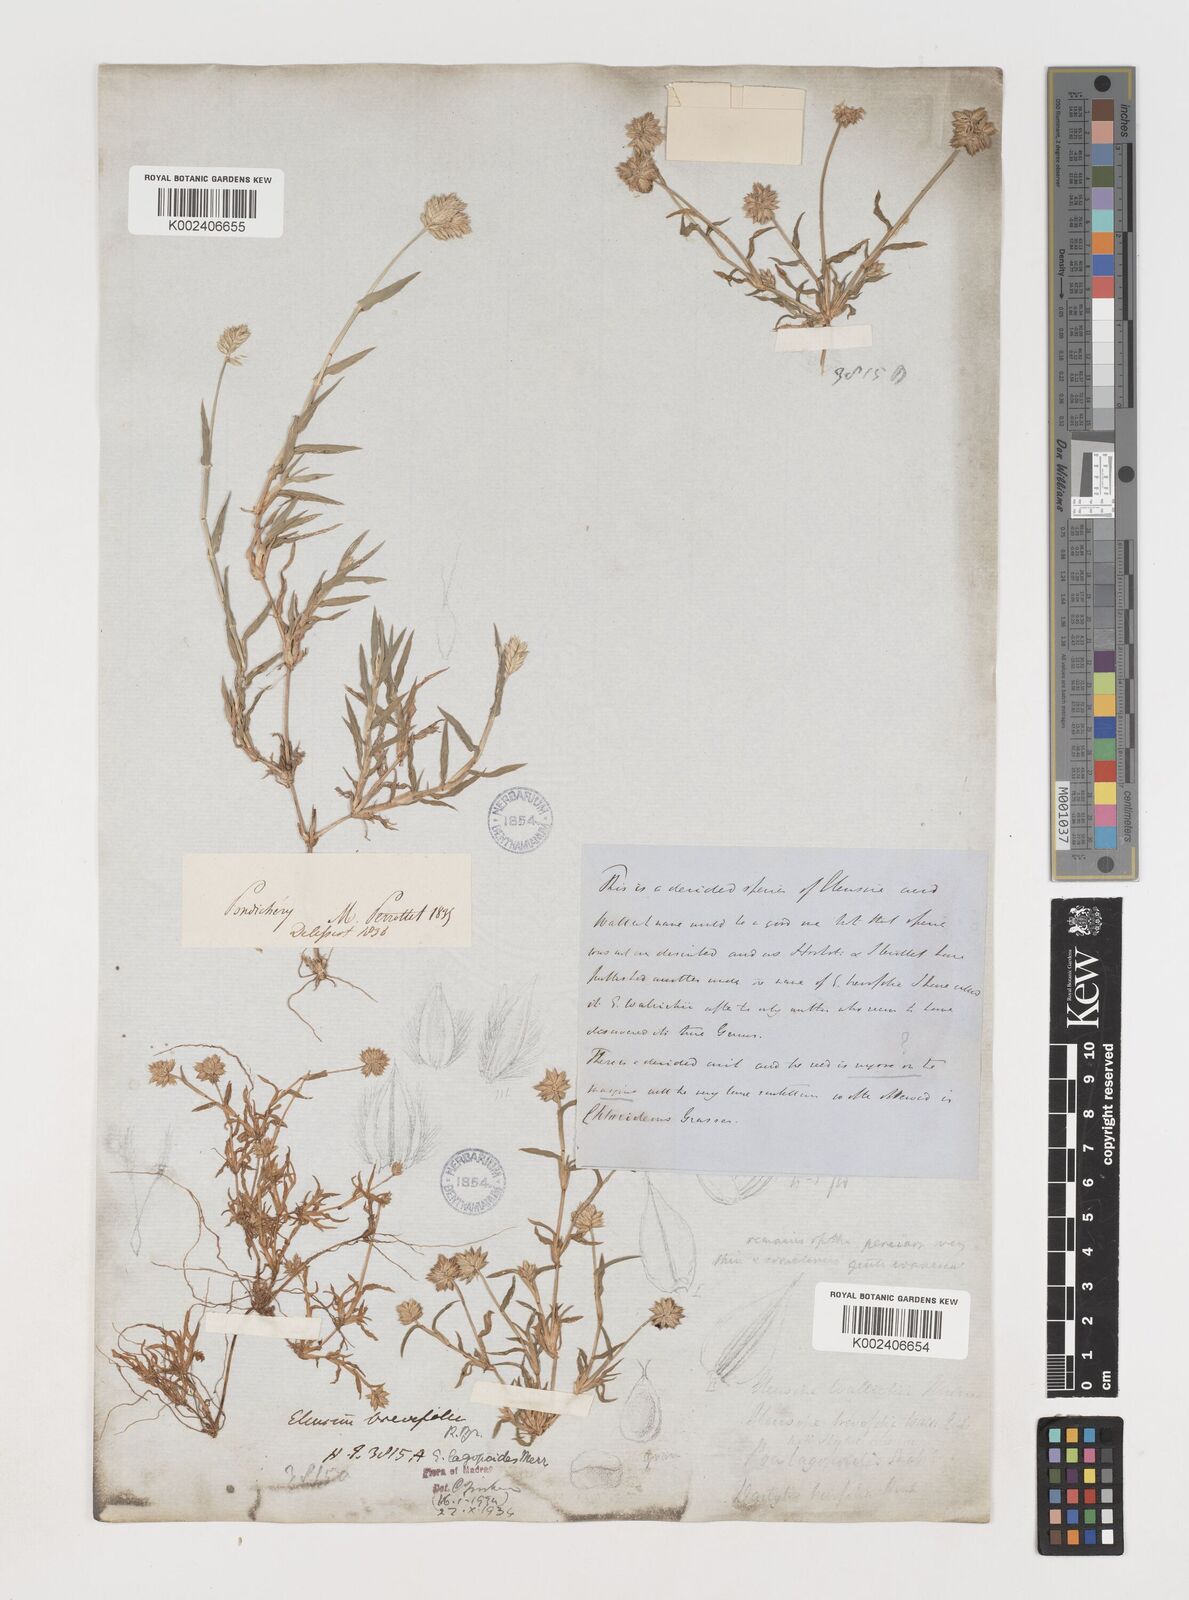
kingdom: Plantae
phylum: Tracheophyta
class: Liliopsida
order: Poales
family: Poaceae
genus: Coelachyrum
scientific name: Coelachyrum lagopoides
